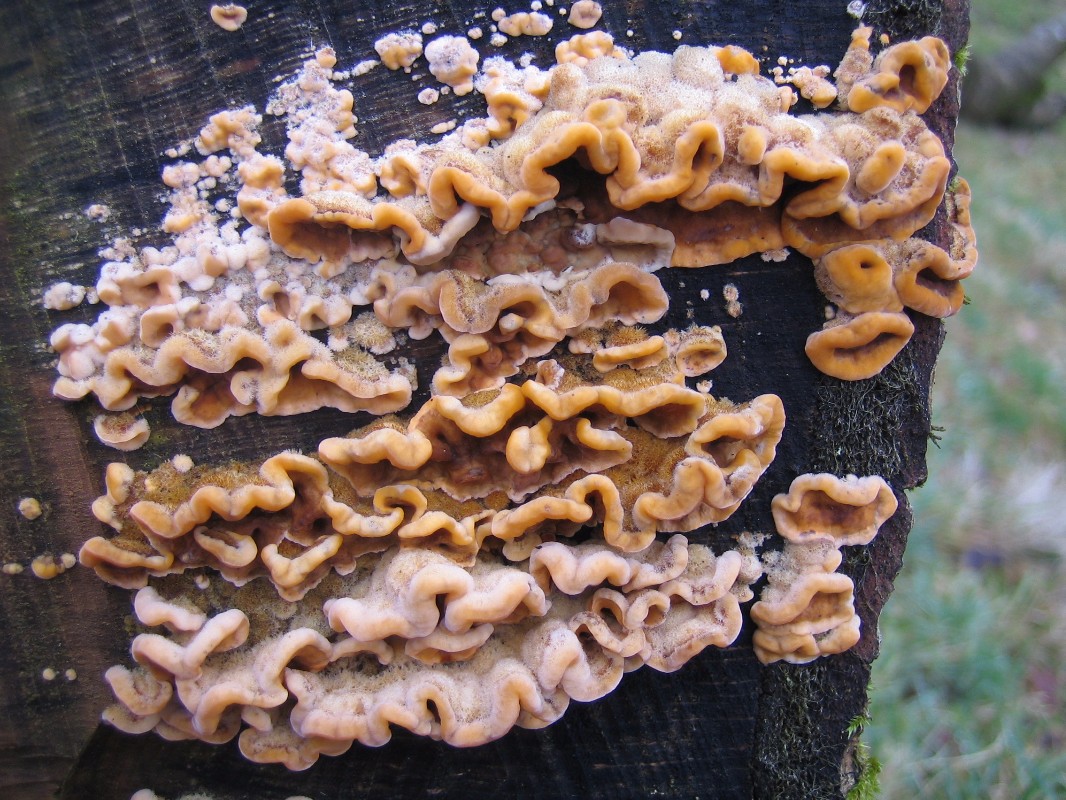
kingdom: Fungi
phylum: Basidiomycota
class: Agaricomycetes
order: Russulales
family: Stereaceae
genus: Stereum
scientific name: Stereum hirsutum
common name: håret lædersvamp
